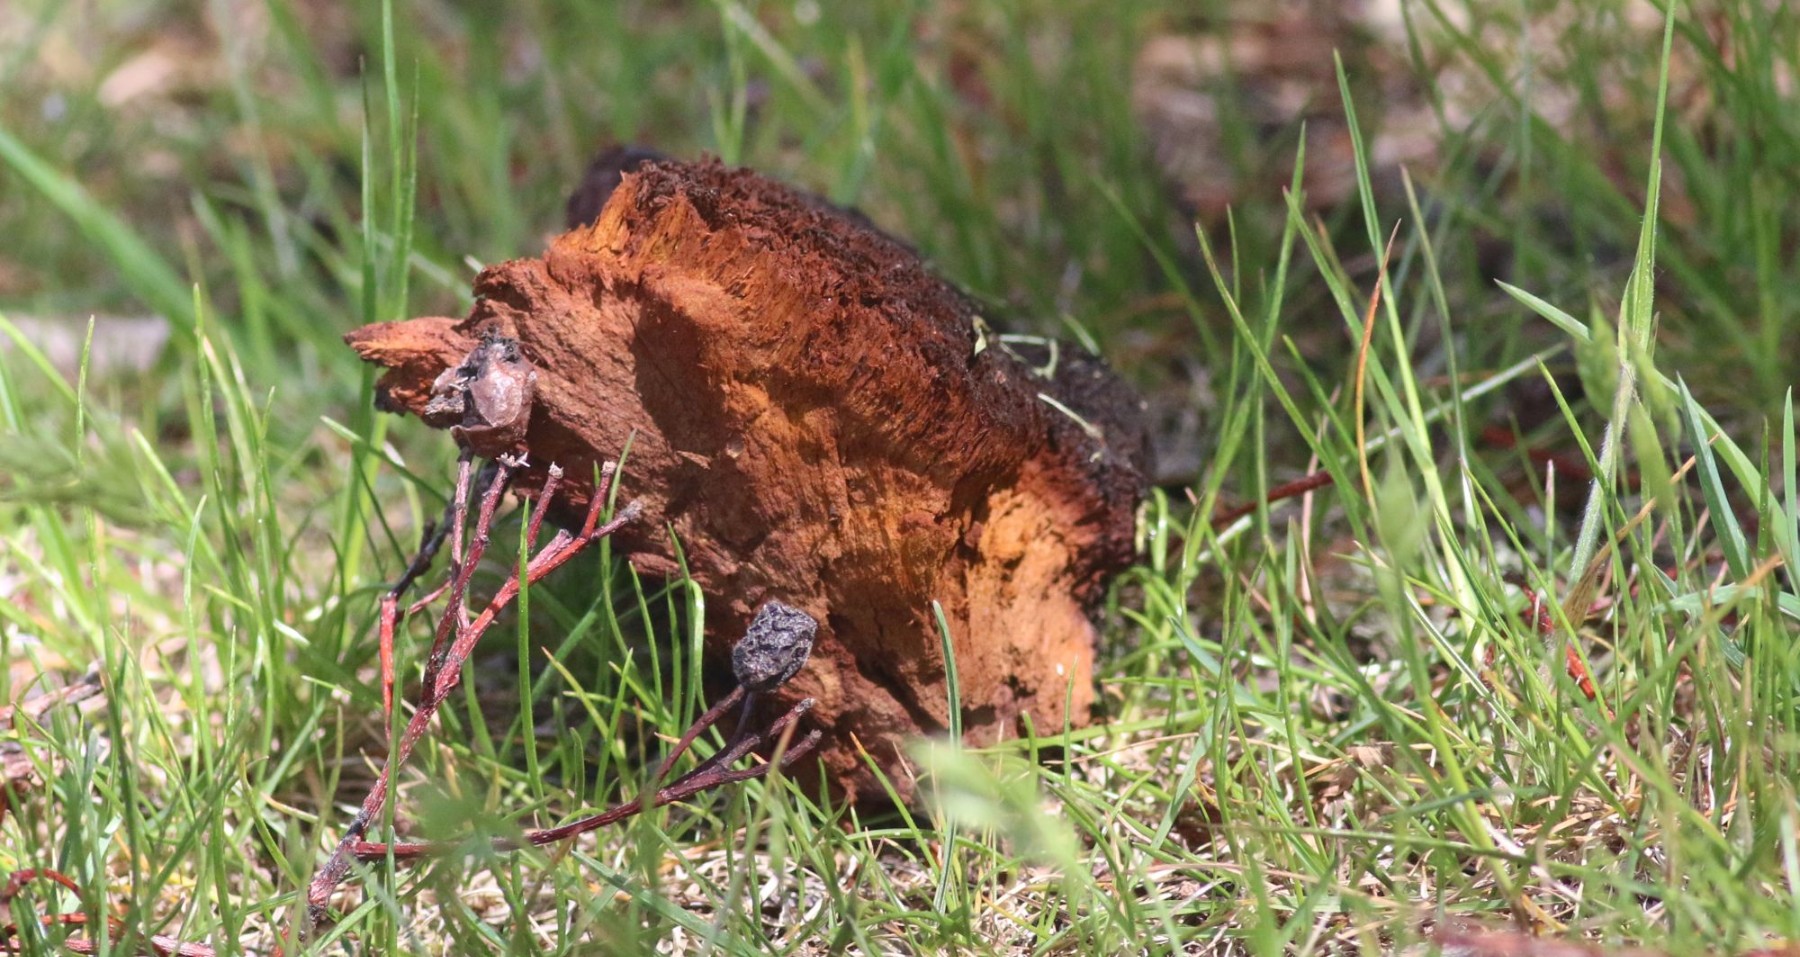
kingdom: Fungi
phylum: Basidiomycota
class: Agaricomycetes
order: Hymenochaetales
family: Hymenochaetaceae
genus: Inonotus
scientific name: Inonotus hispidus
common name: børstehåret spejlporesvamp
